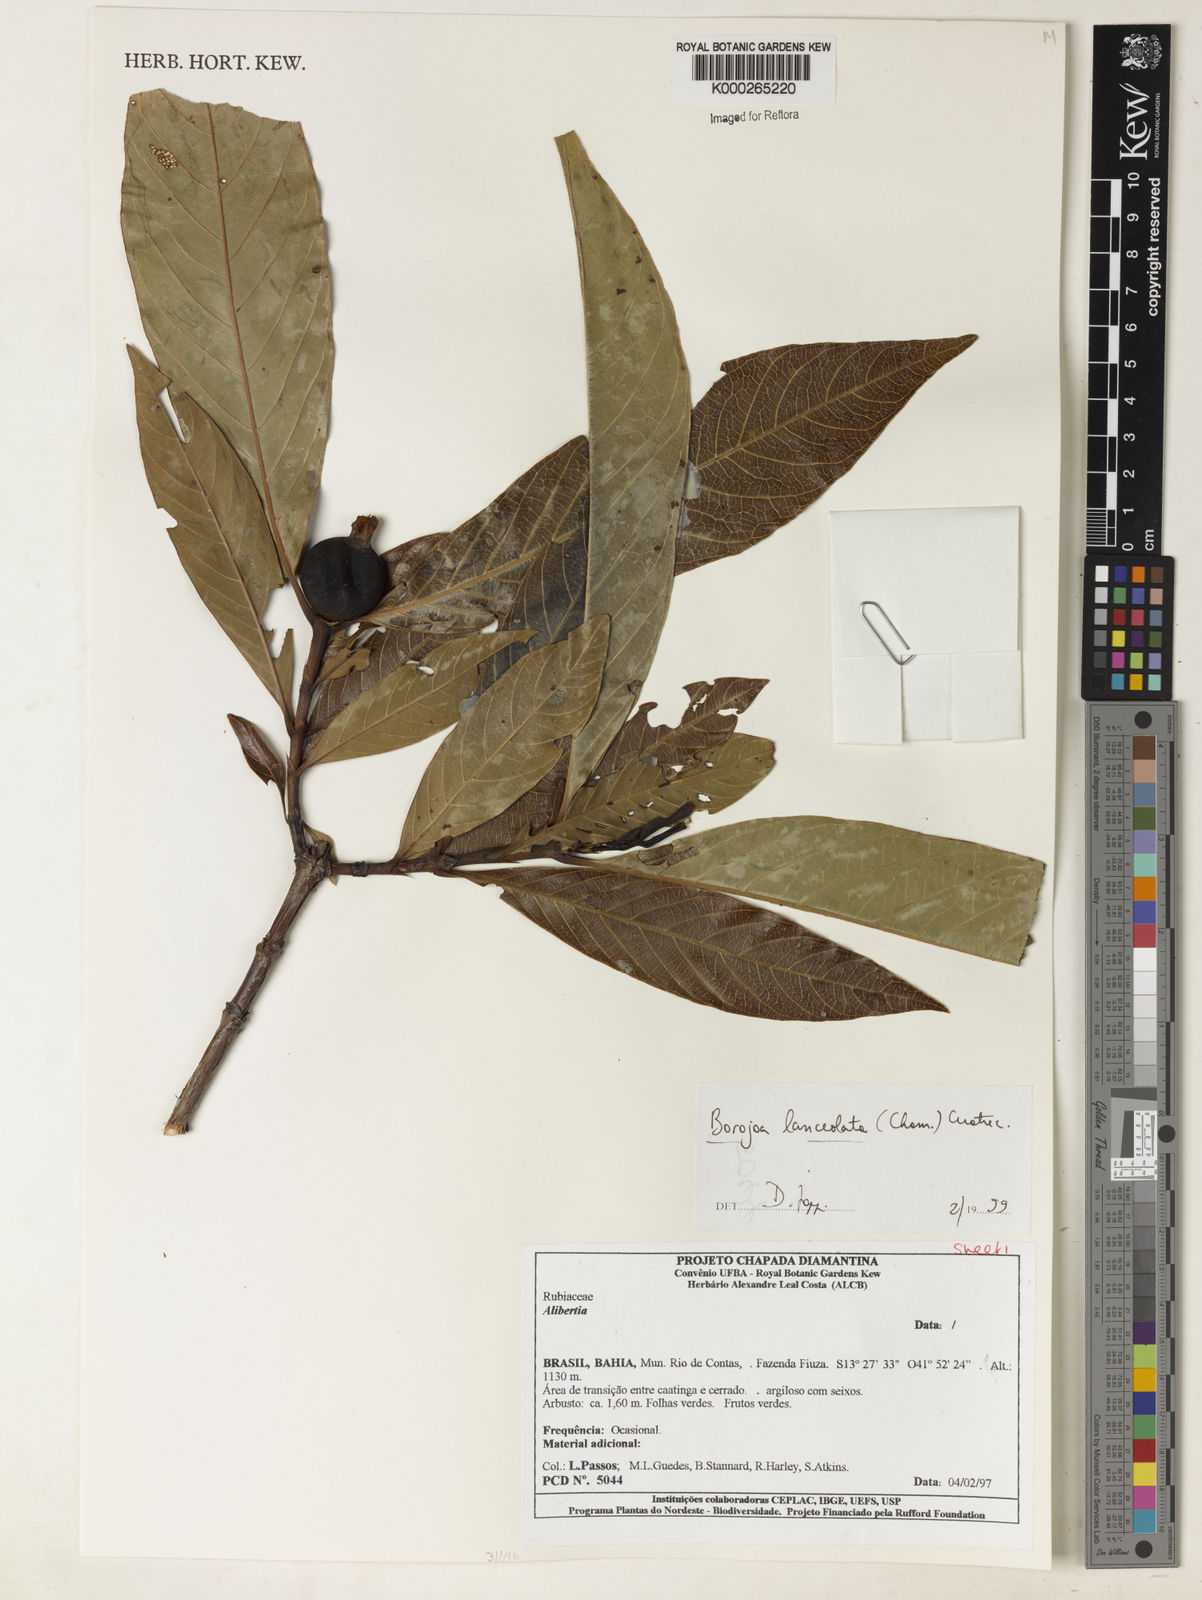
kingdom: Plantae
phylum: Tracheophyta
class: Magnoliopsida
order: Gentianales
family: Rubiaceae
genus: Alibertia
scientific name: Alibertia edulis
